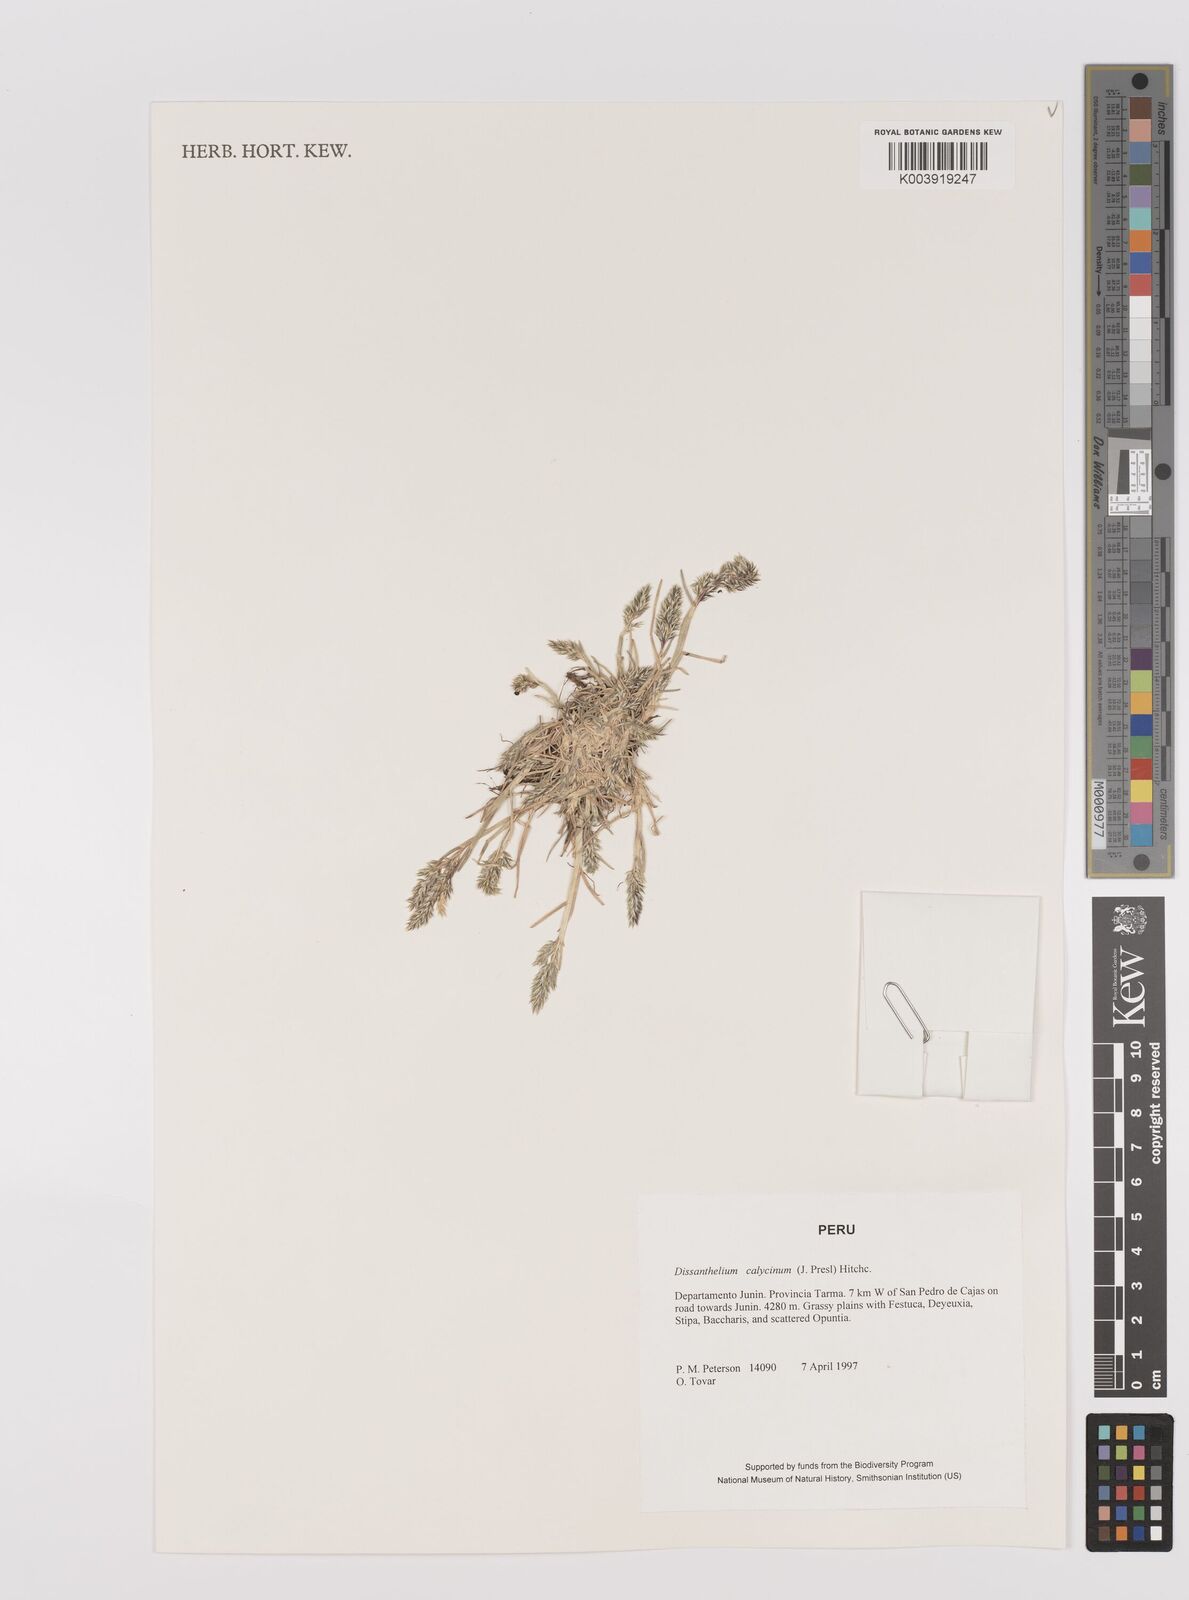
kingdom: Plantae
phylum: Tracheophyta
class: Liliopsida
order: Poales
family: Poaceae
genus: Poa
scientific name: Poa calycina
